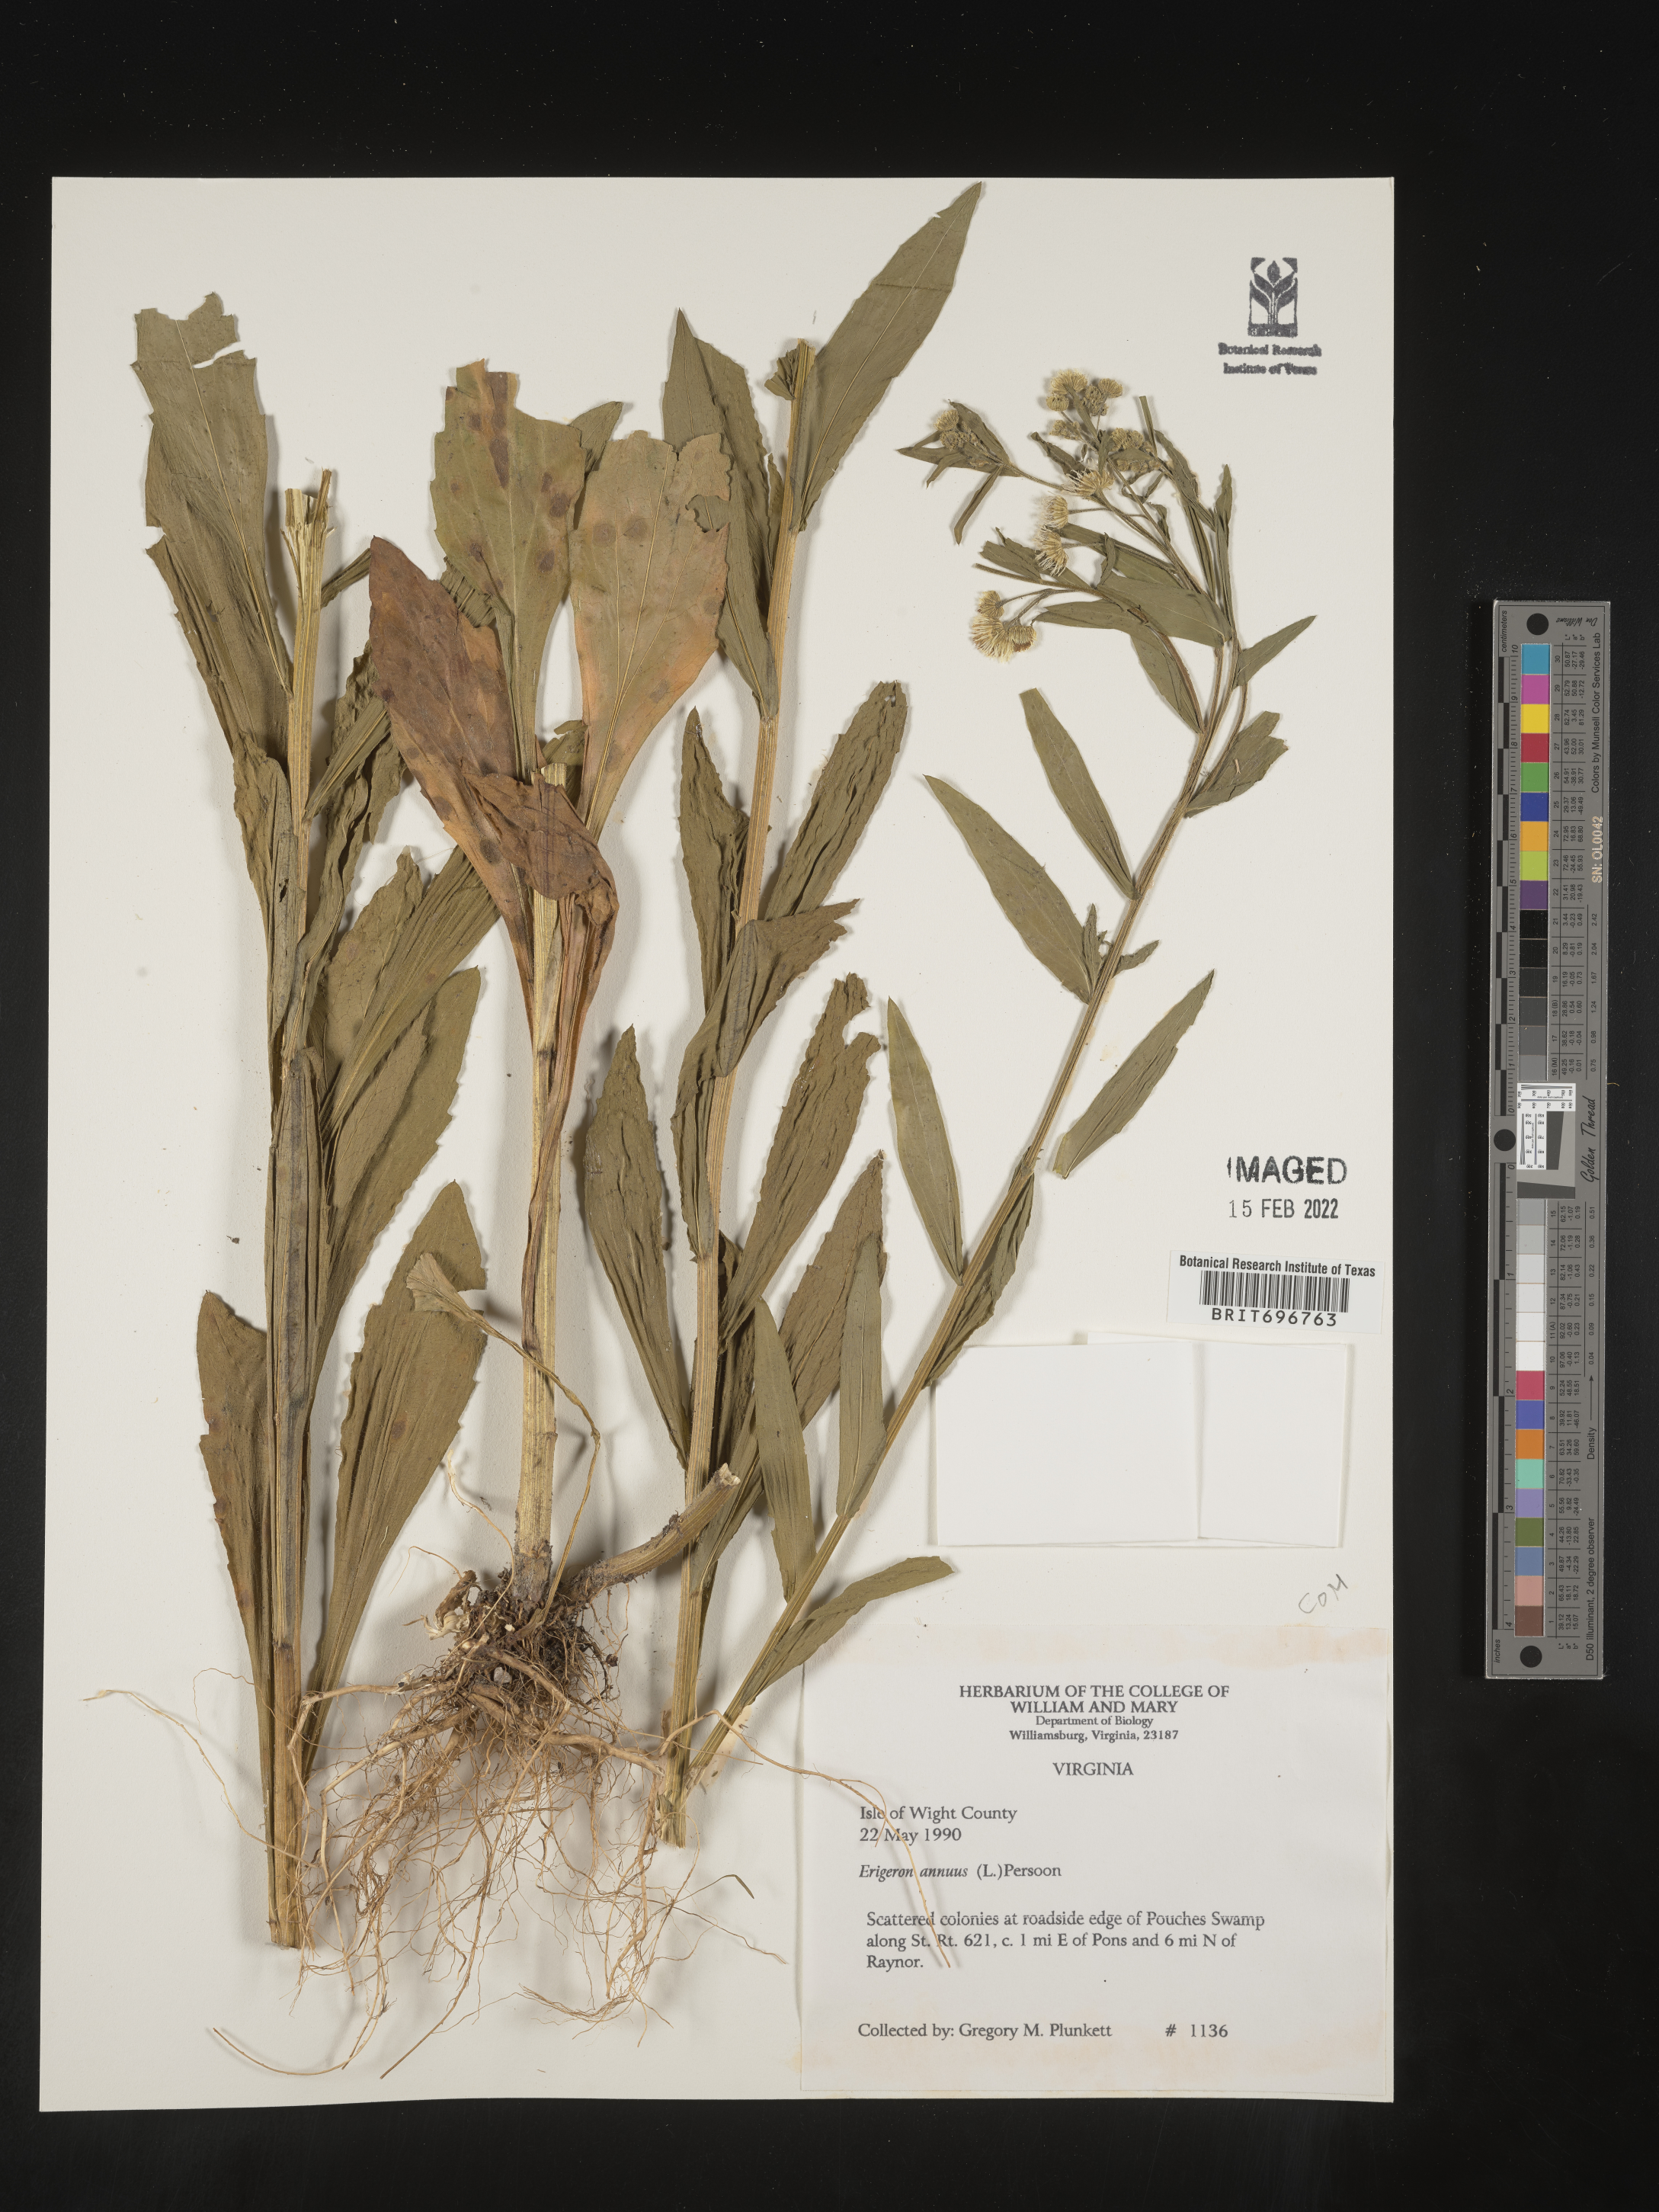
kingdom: Plantae
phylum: Tracheophyta
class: Magnoliopsida
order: Asterales
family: Asteraceae
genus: Erigeron
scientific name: Erigeron annuus
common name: Tall fleabane
